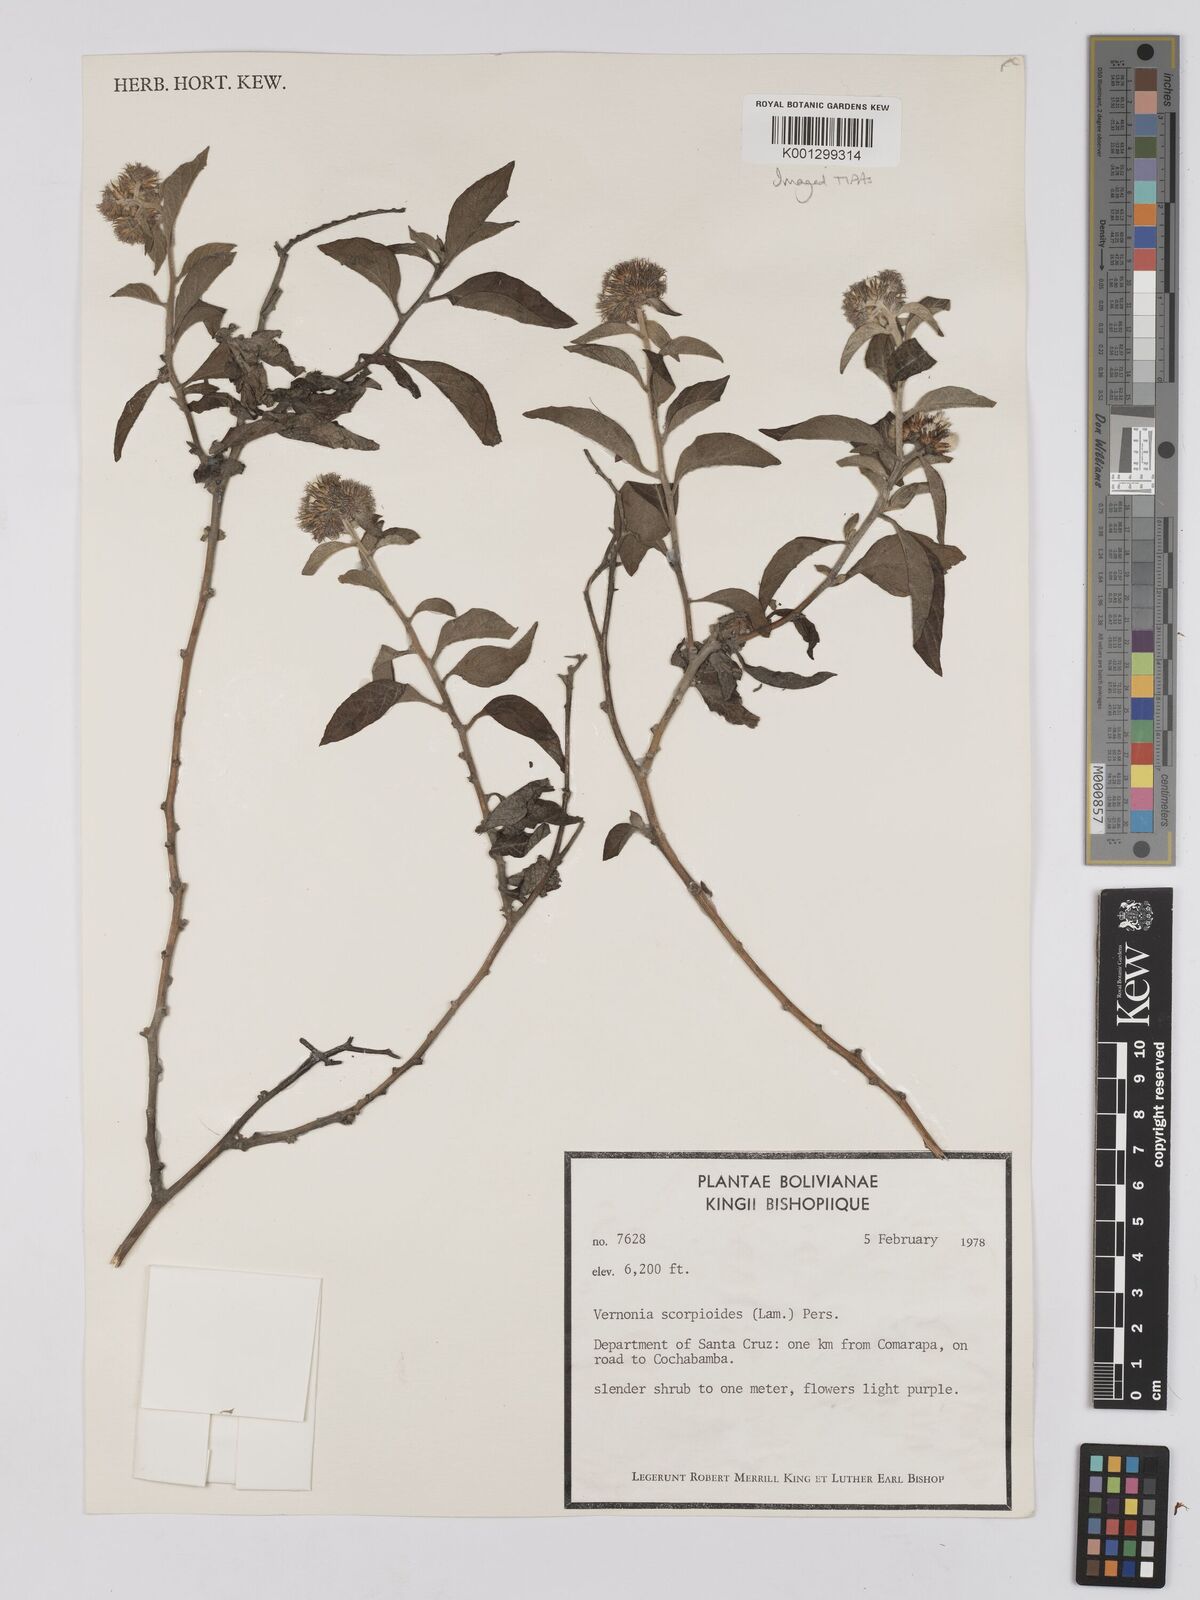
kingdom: Plantae
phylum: Tracheophyta
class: Magnoliopsida
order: Asterales
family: Asteraceae
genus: Cyrtocymura
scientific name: Cyrtocymura scorpioides
